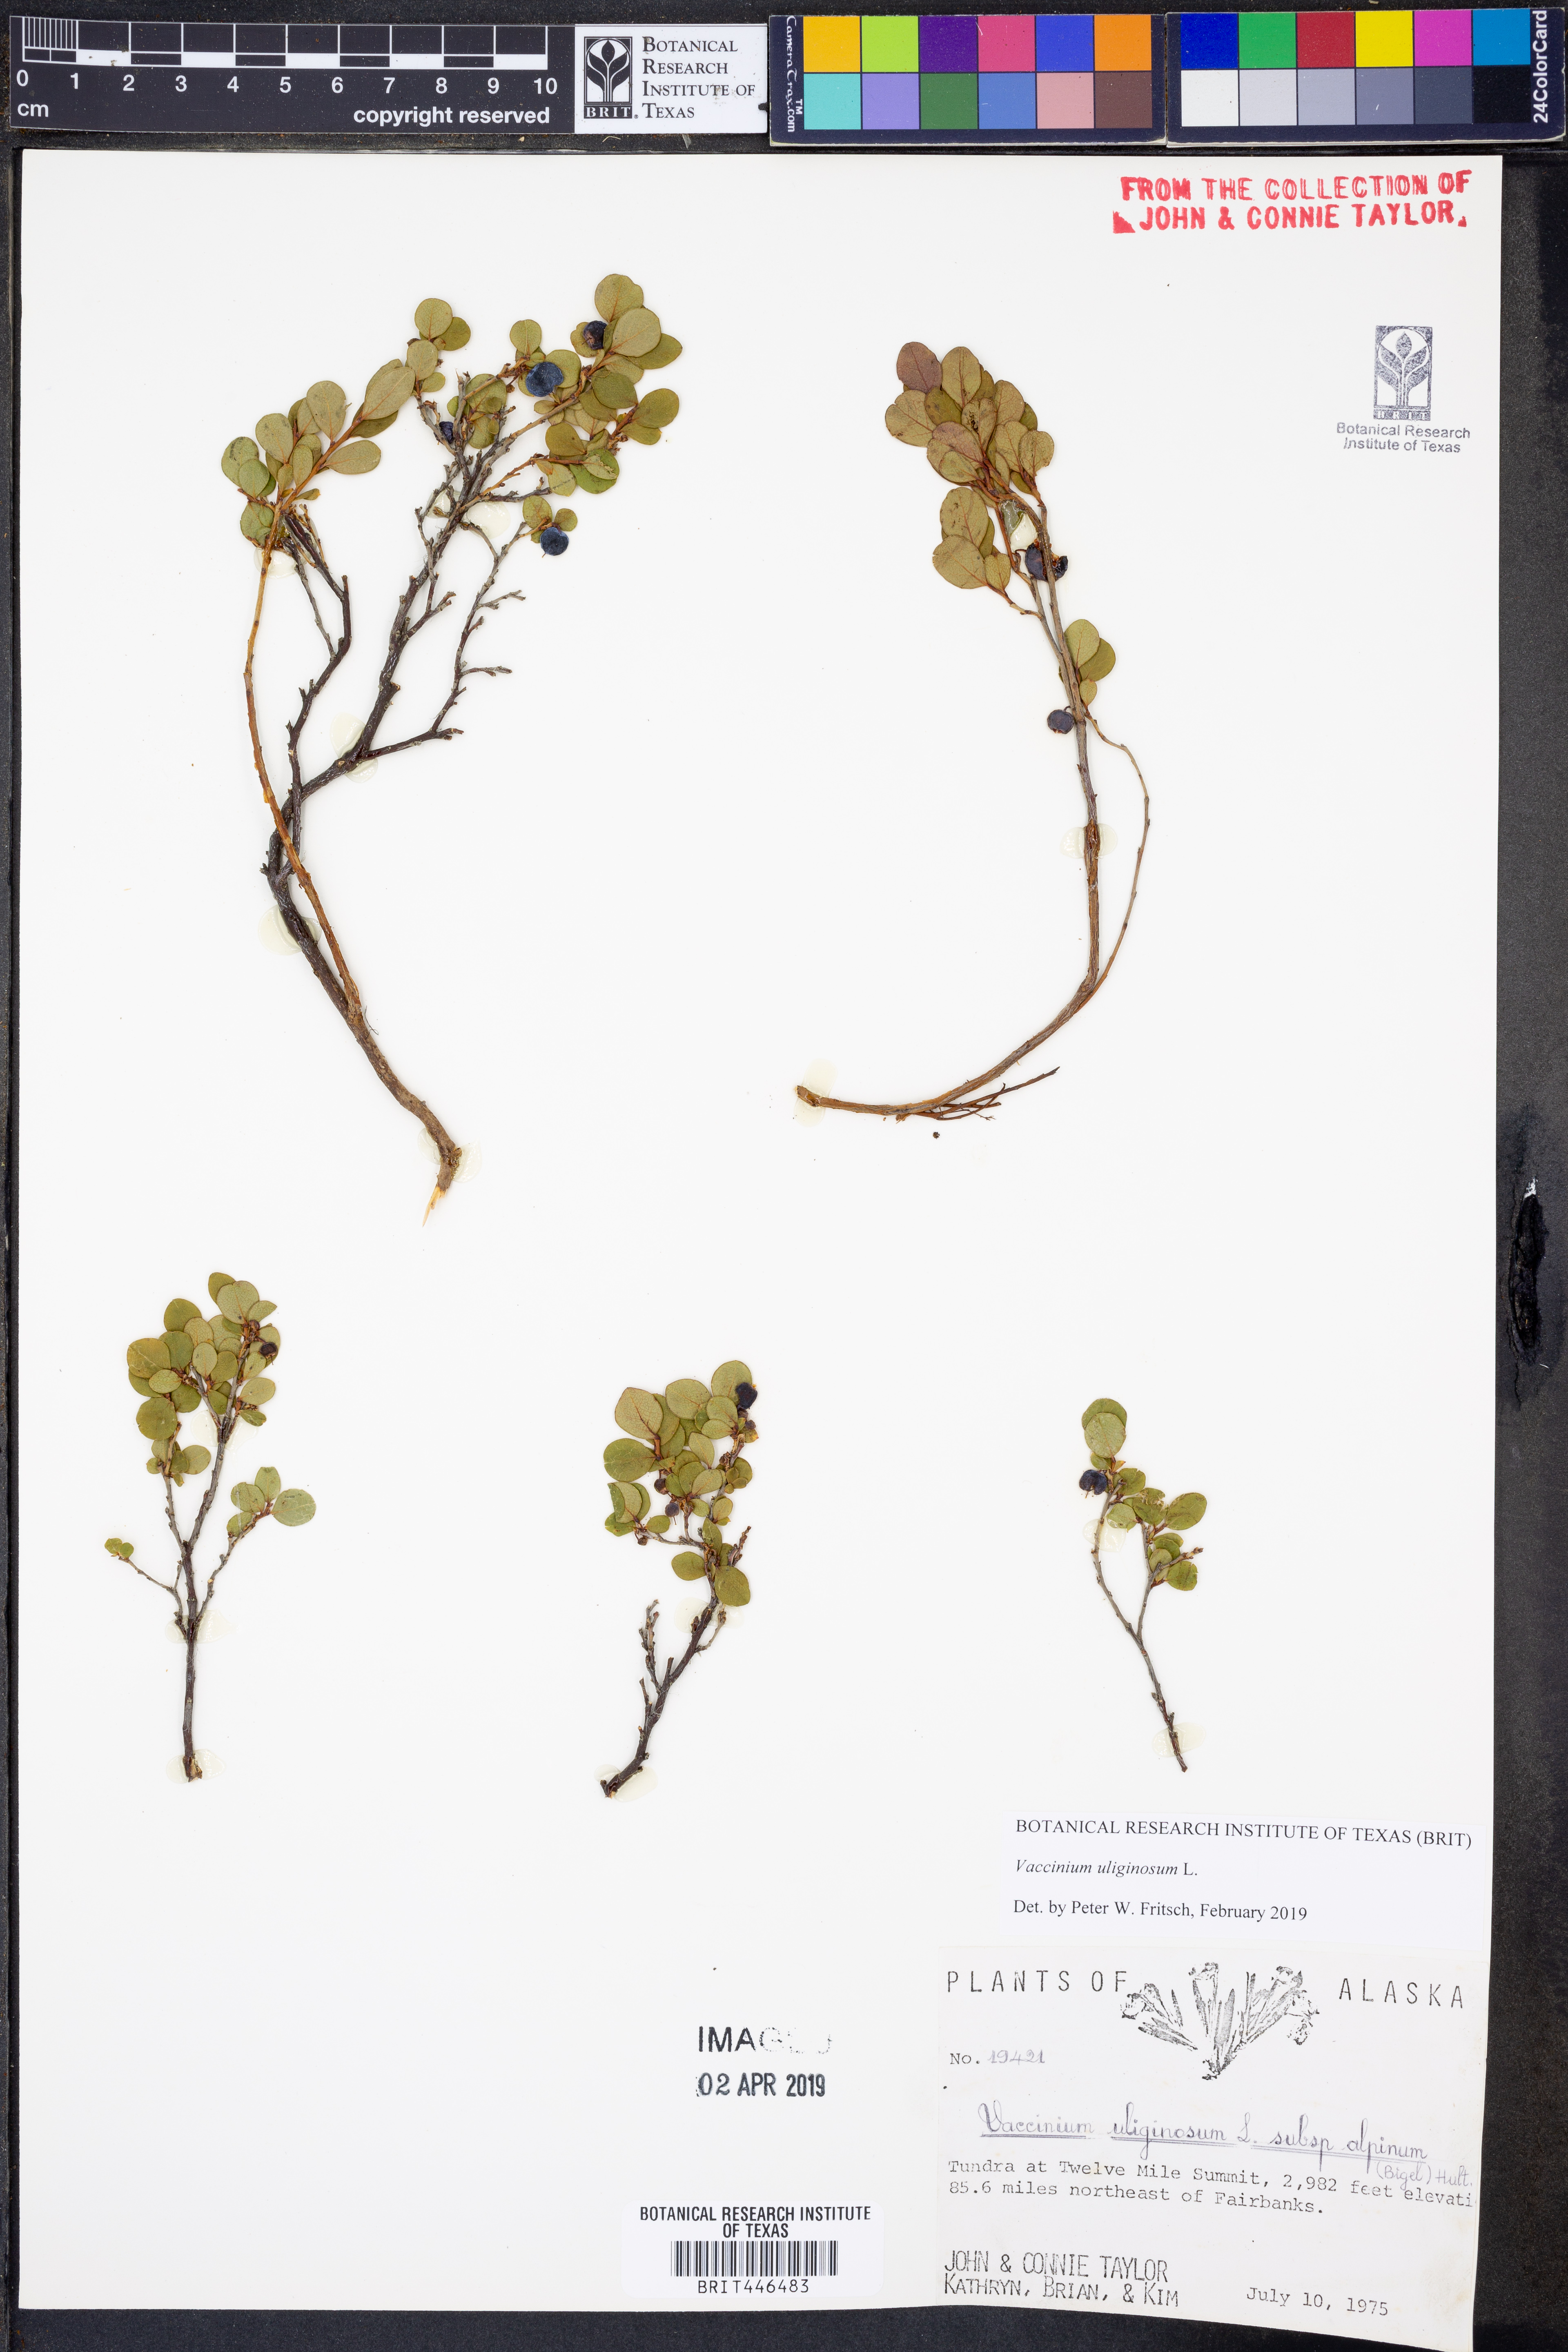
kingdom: Plantae
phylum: Tracheophyta
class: Magnoliopsida
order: Ericales
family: Ericaceae
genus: Vaccinium
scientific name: Vaccinium uliginosum
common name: Bog bilberry
